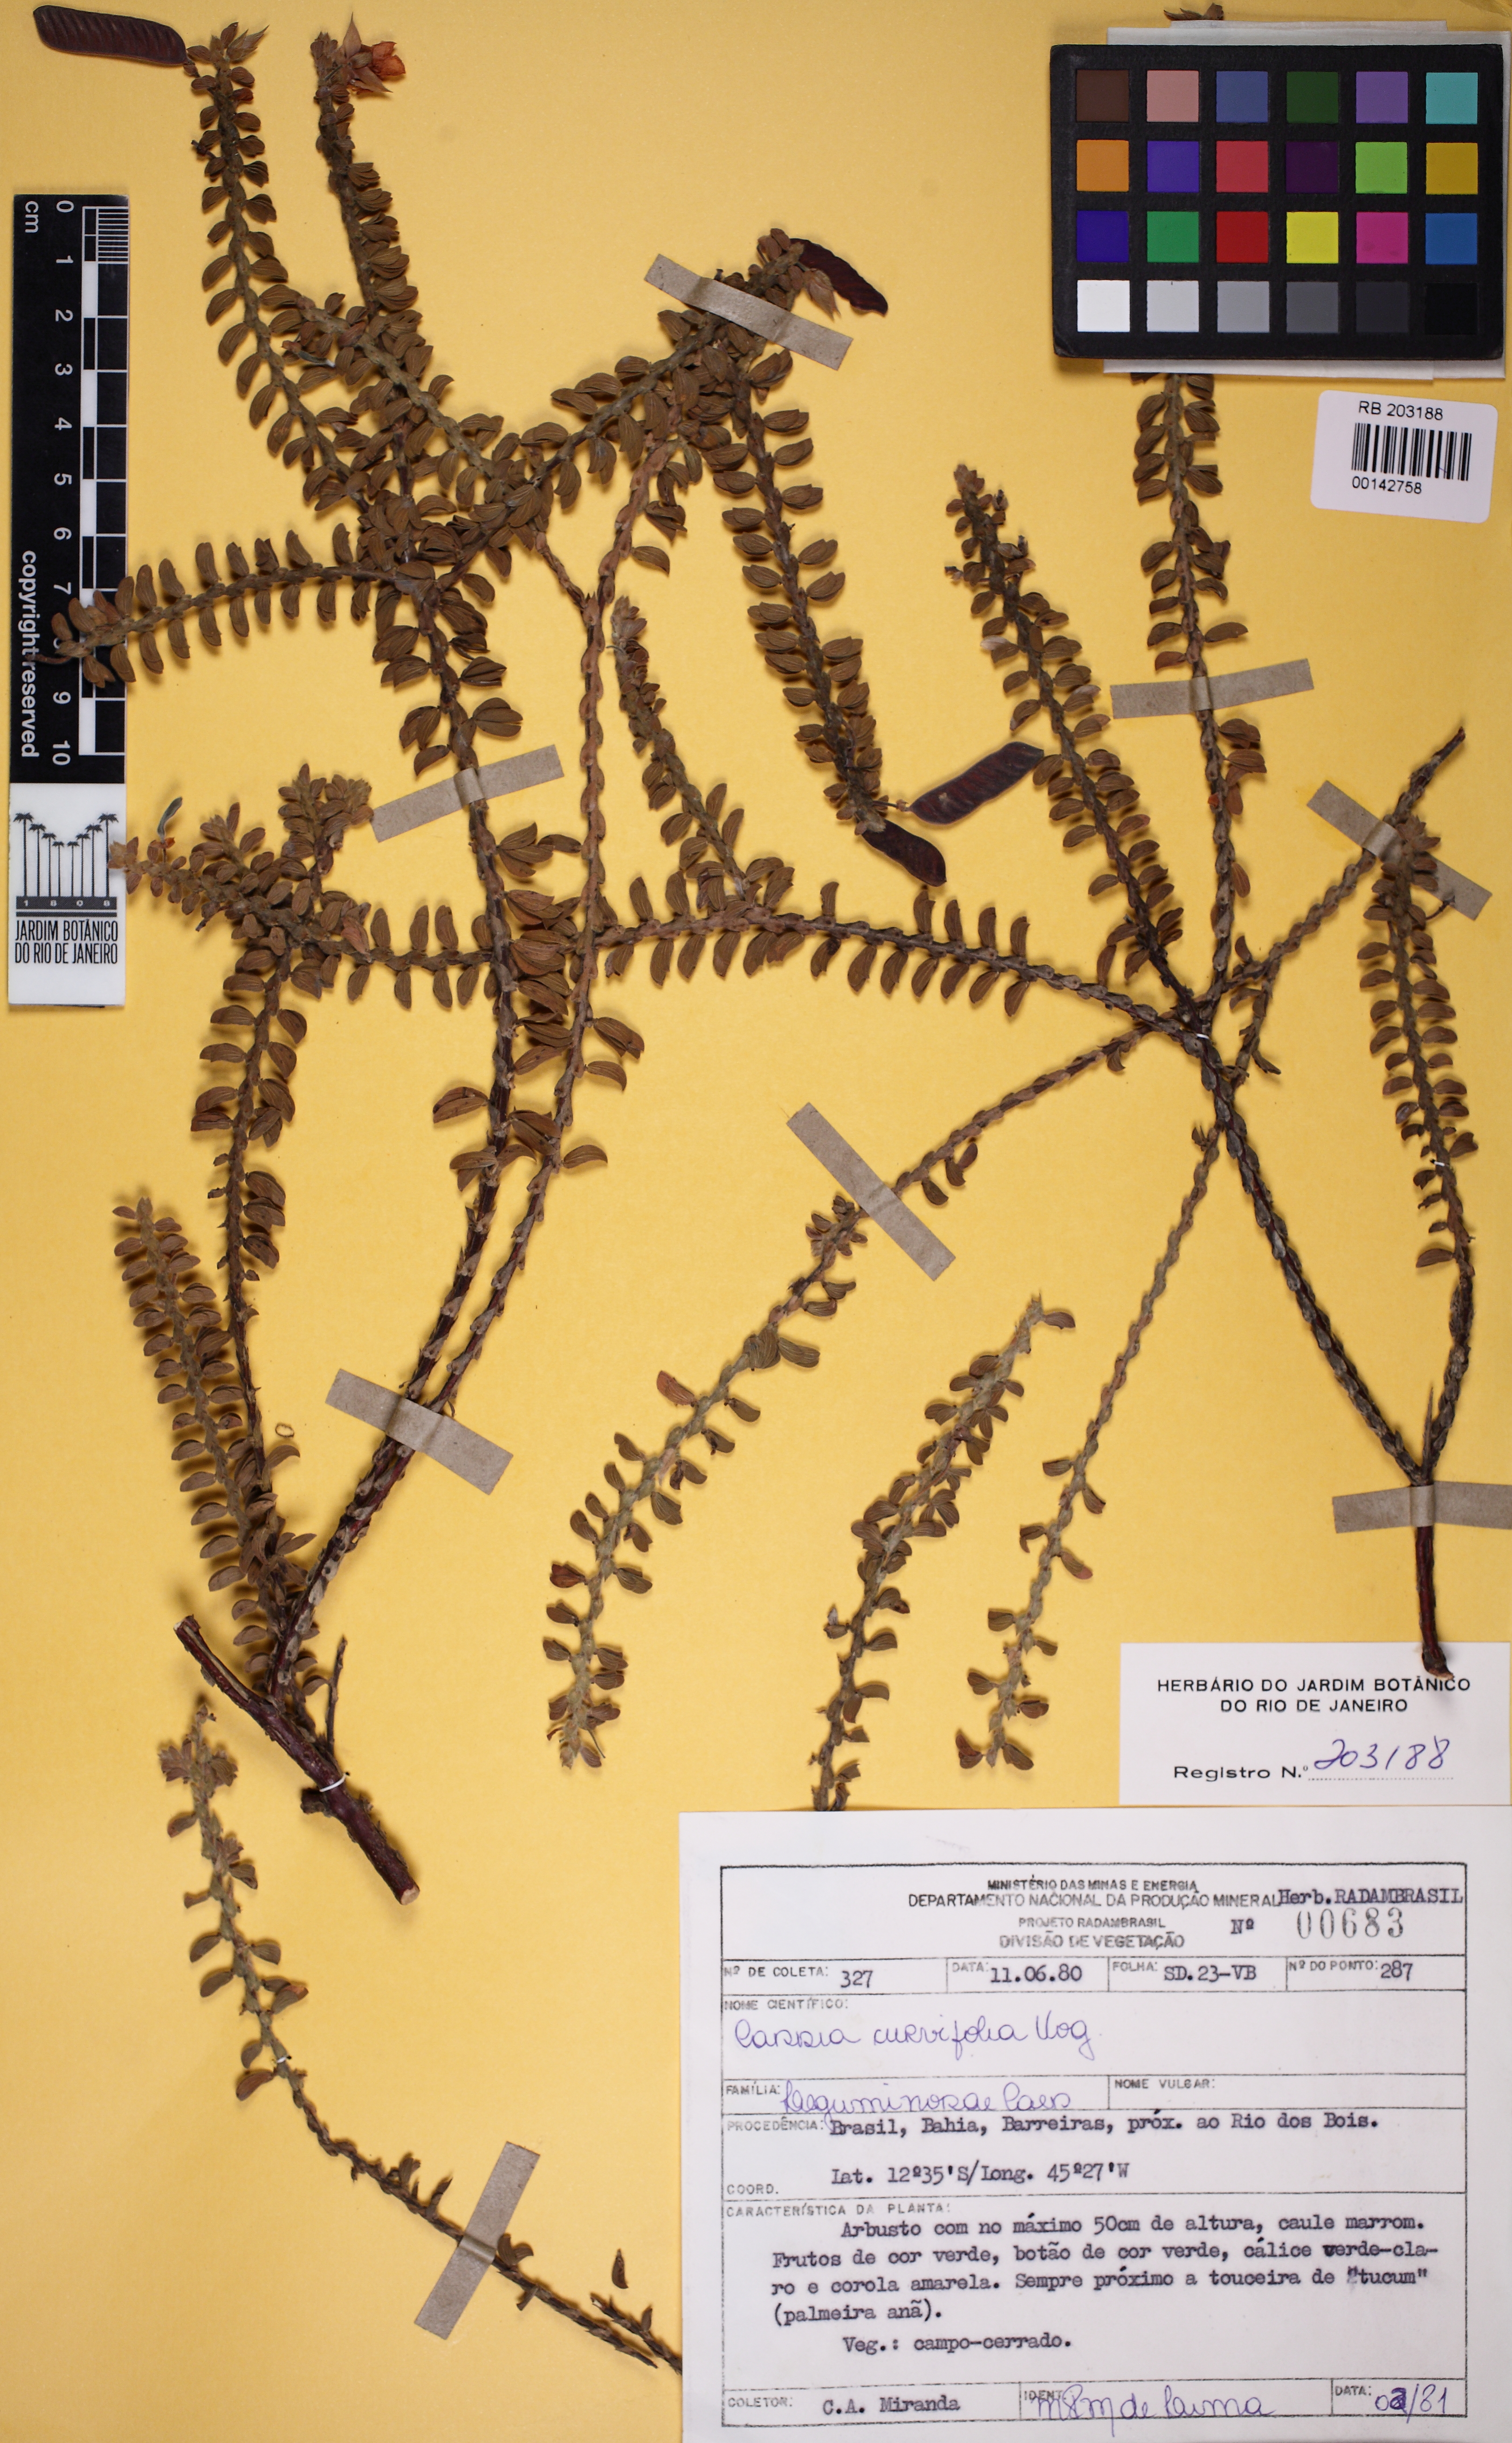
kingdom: Plantae
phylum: Tracheophyta
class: Magnoliopsida
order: Fabales
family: Fabaceae
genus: Chamaecrista
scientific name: Chamaecrista ramosa
